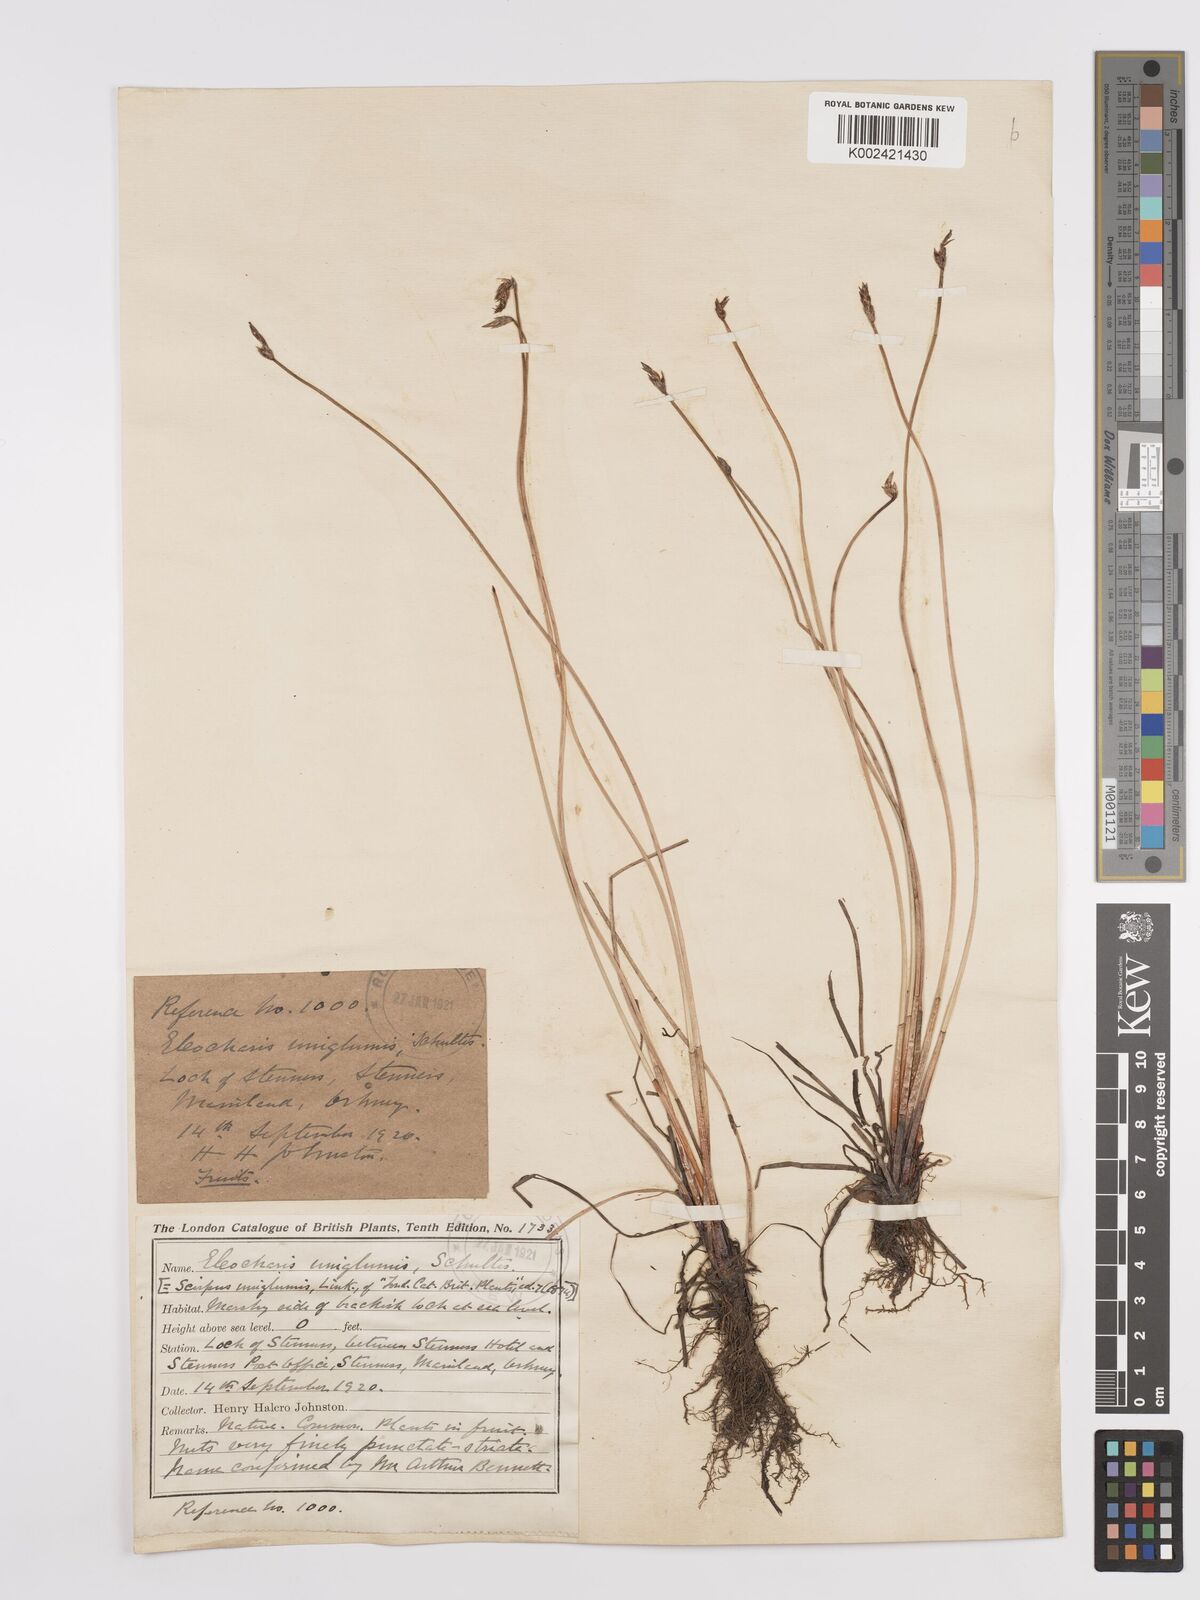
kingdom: Plantae
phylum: Tracheophyta
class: Liliopsida
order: Poales
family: Cyperaceae
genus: Eleocharis
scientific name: Eleocharis uniglumis
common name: Slender spike-rush
